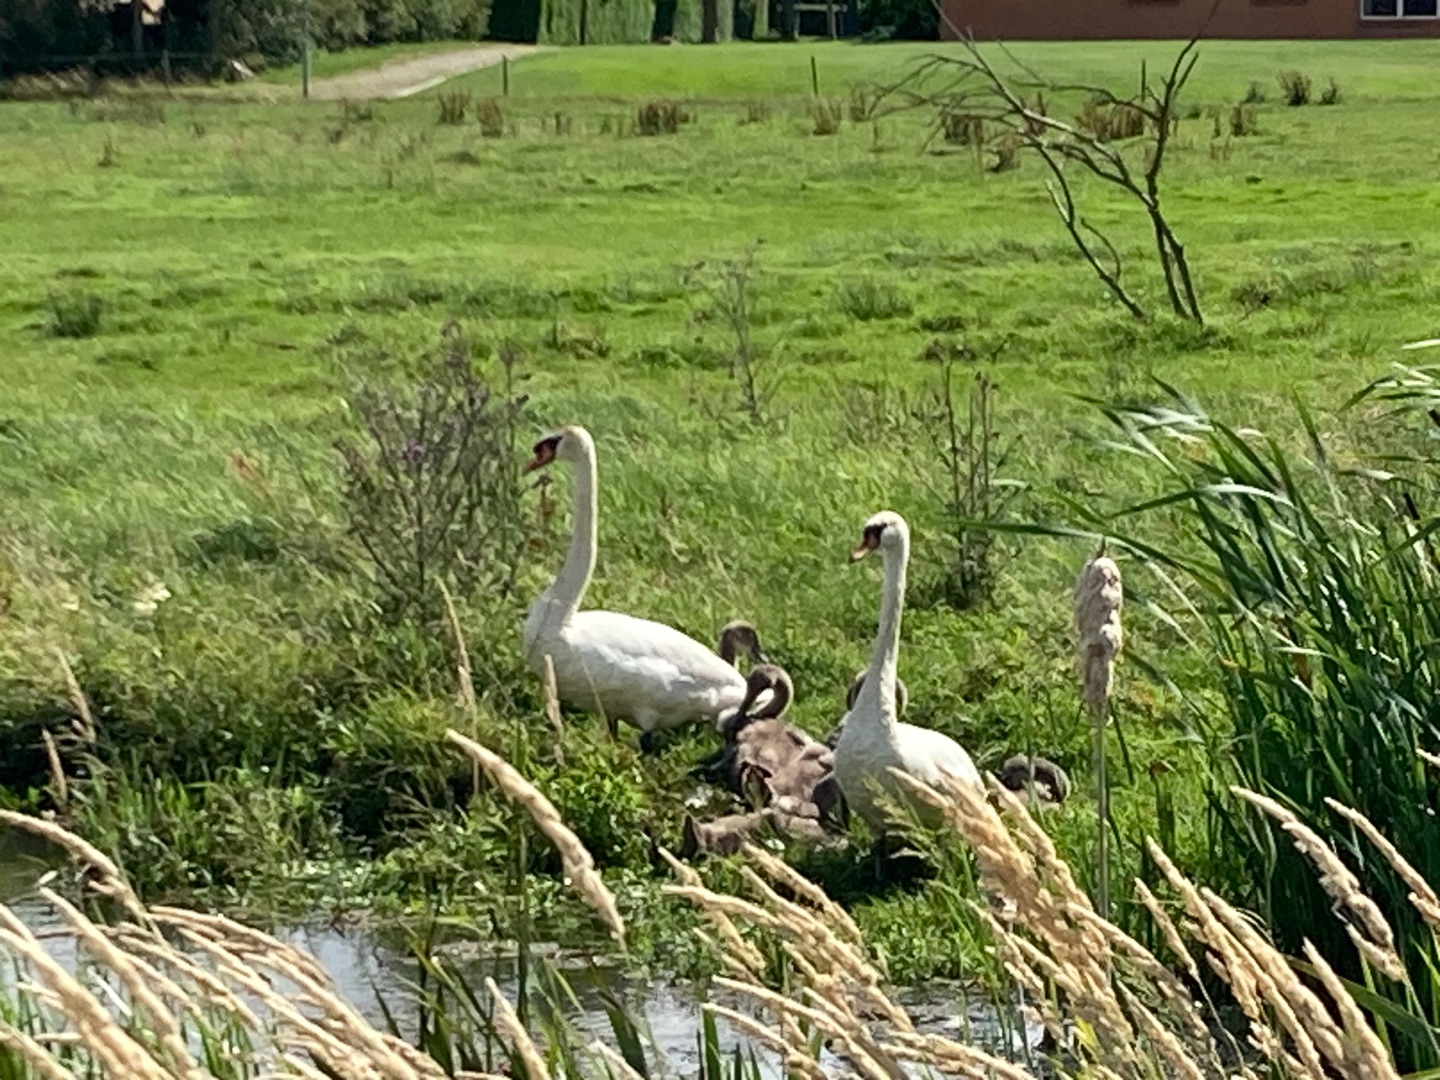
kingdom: Animalia
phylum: Chordata
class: Aves
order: Anseriformes
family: Anatidae
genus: Cygnus
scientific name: Cygnus olor
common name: Knopsvane
